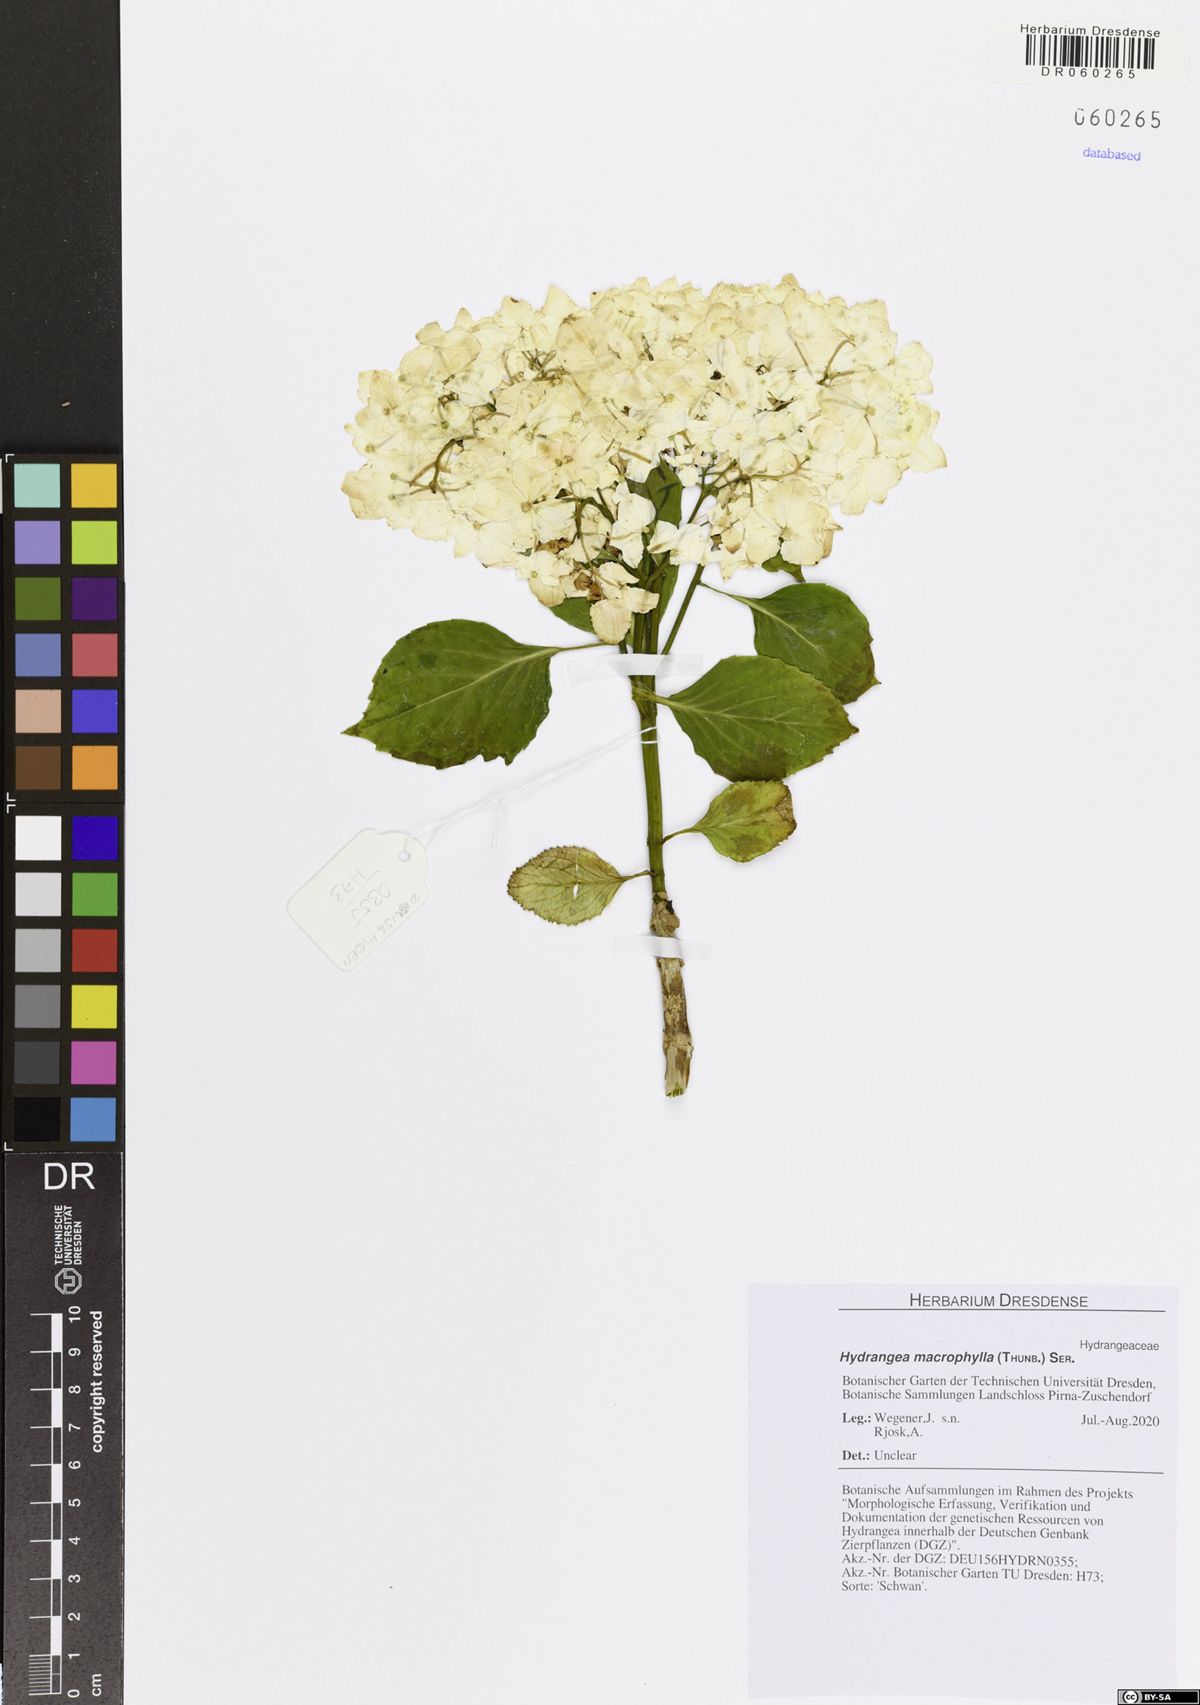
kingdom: Plantae
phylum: Tracheophyta
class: Magnoliopsida
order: Cornales
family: Hydrangeaceae
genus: Hydrangea
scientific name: Hydrangea macrophylla
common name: Hydrangea
